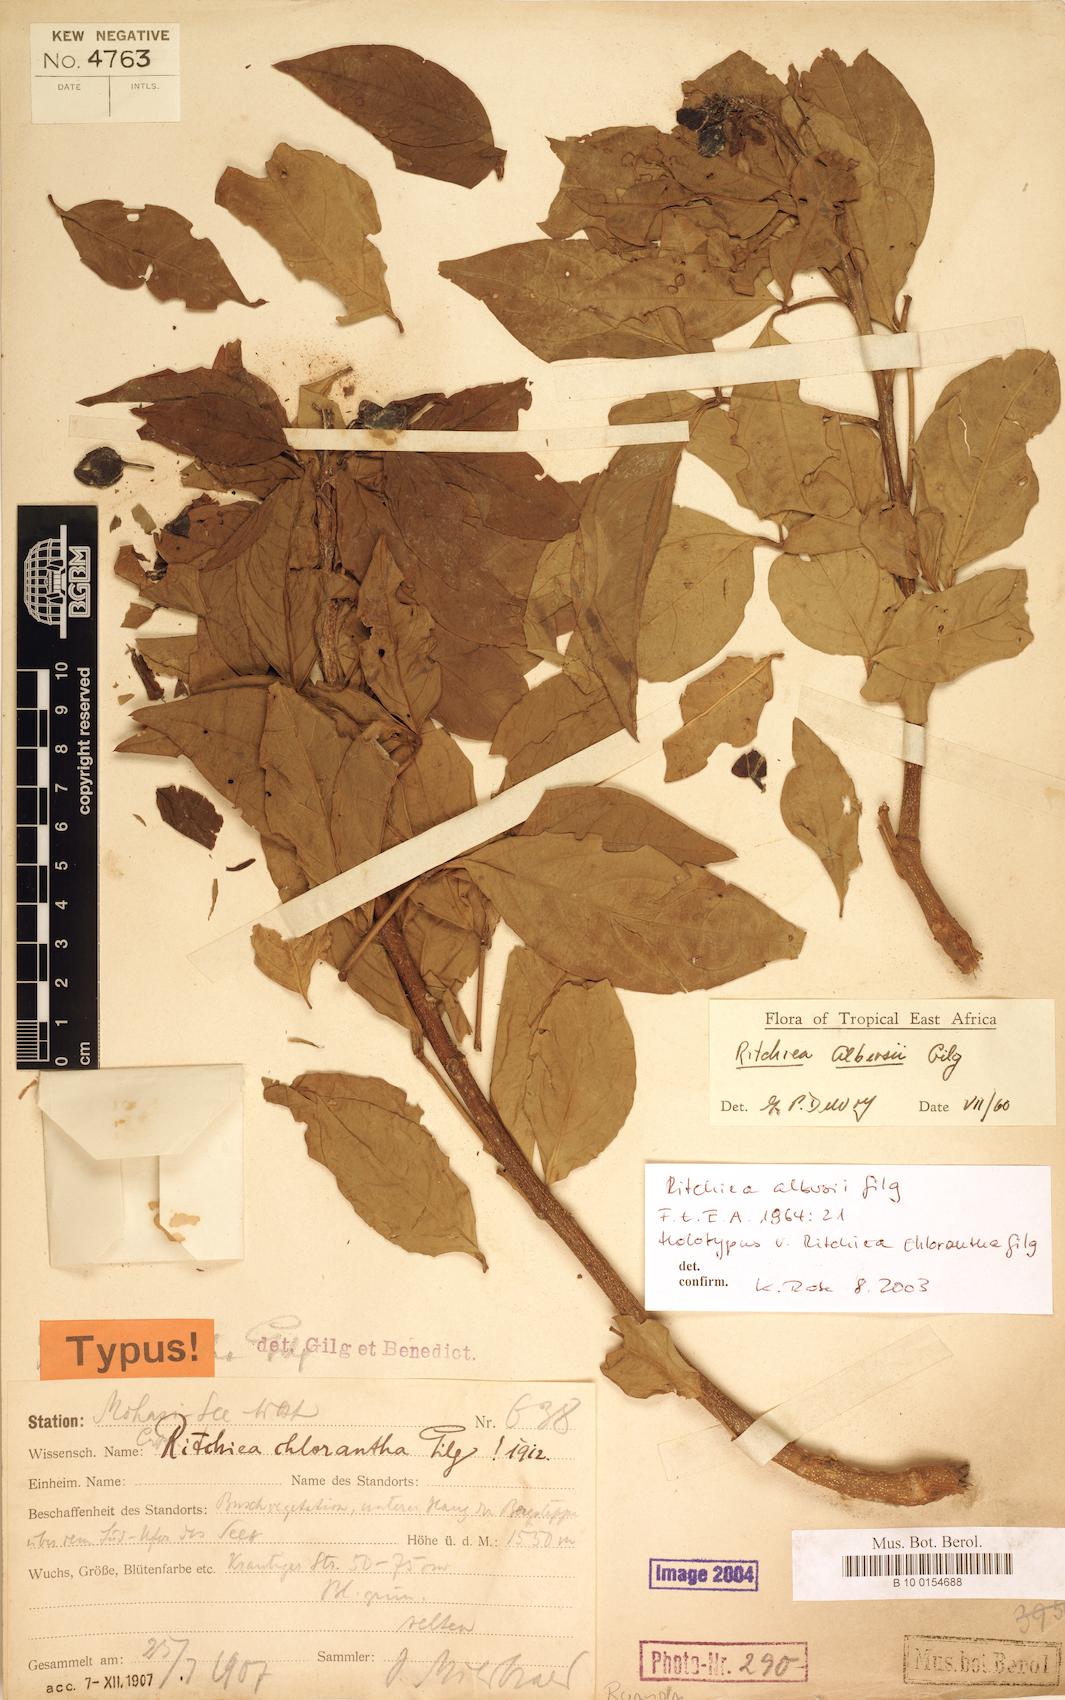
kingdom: Plantae
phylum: Tracheophyta
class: Magnoliopsida
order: Brassicales
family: Capparaceae
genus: Ritchiea
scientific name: Ritchiea albersii
